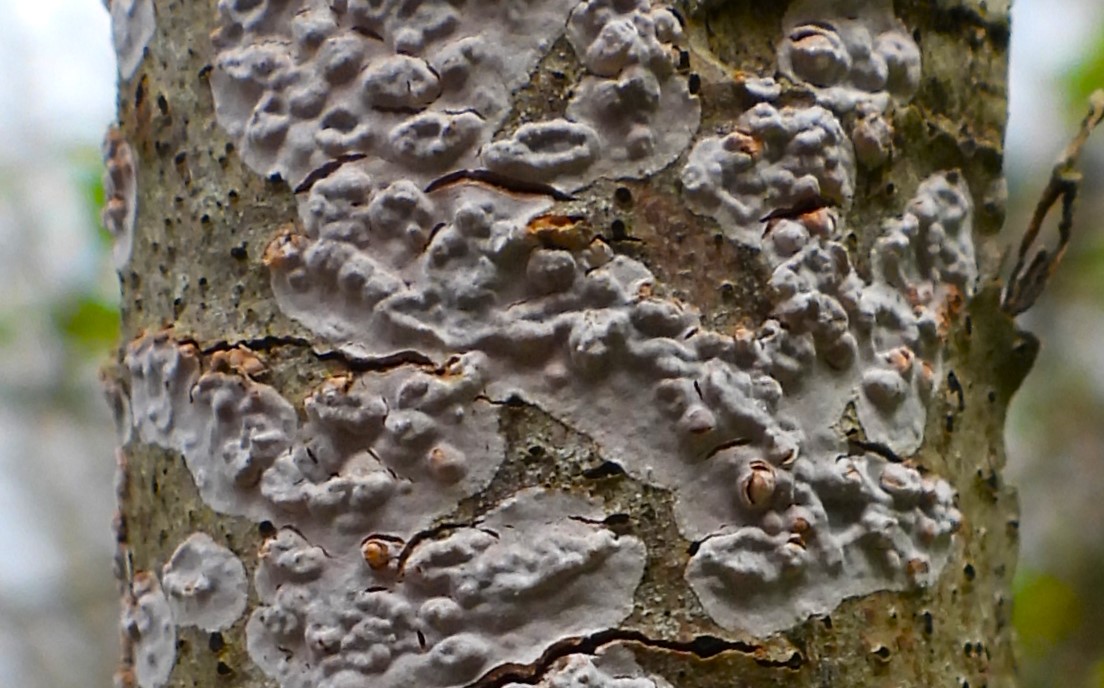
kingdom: Fungi
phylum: Basidiomycota
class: Agaricomycetes
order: Russulales
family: Peniophoraceae
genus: Peniophora
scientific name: Peniophora polygonia
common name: polygon-voksskind
